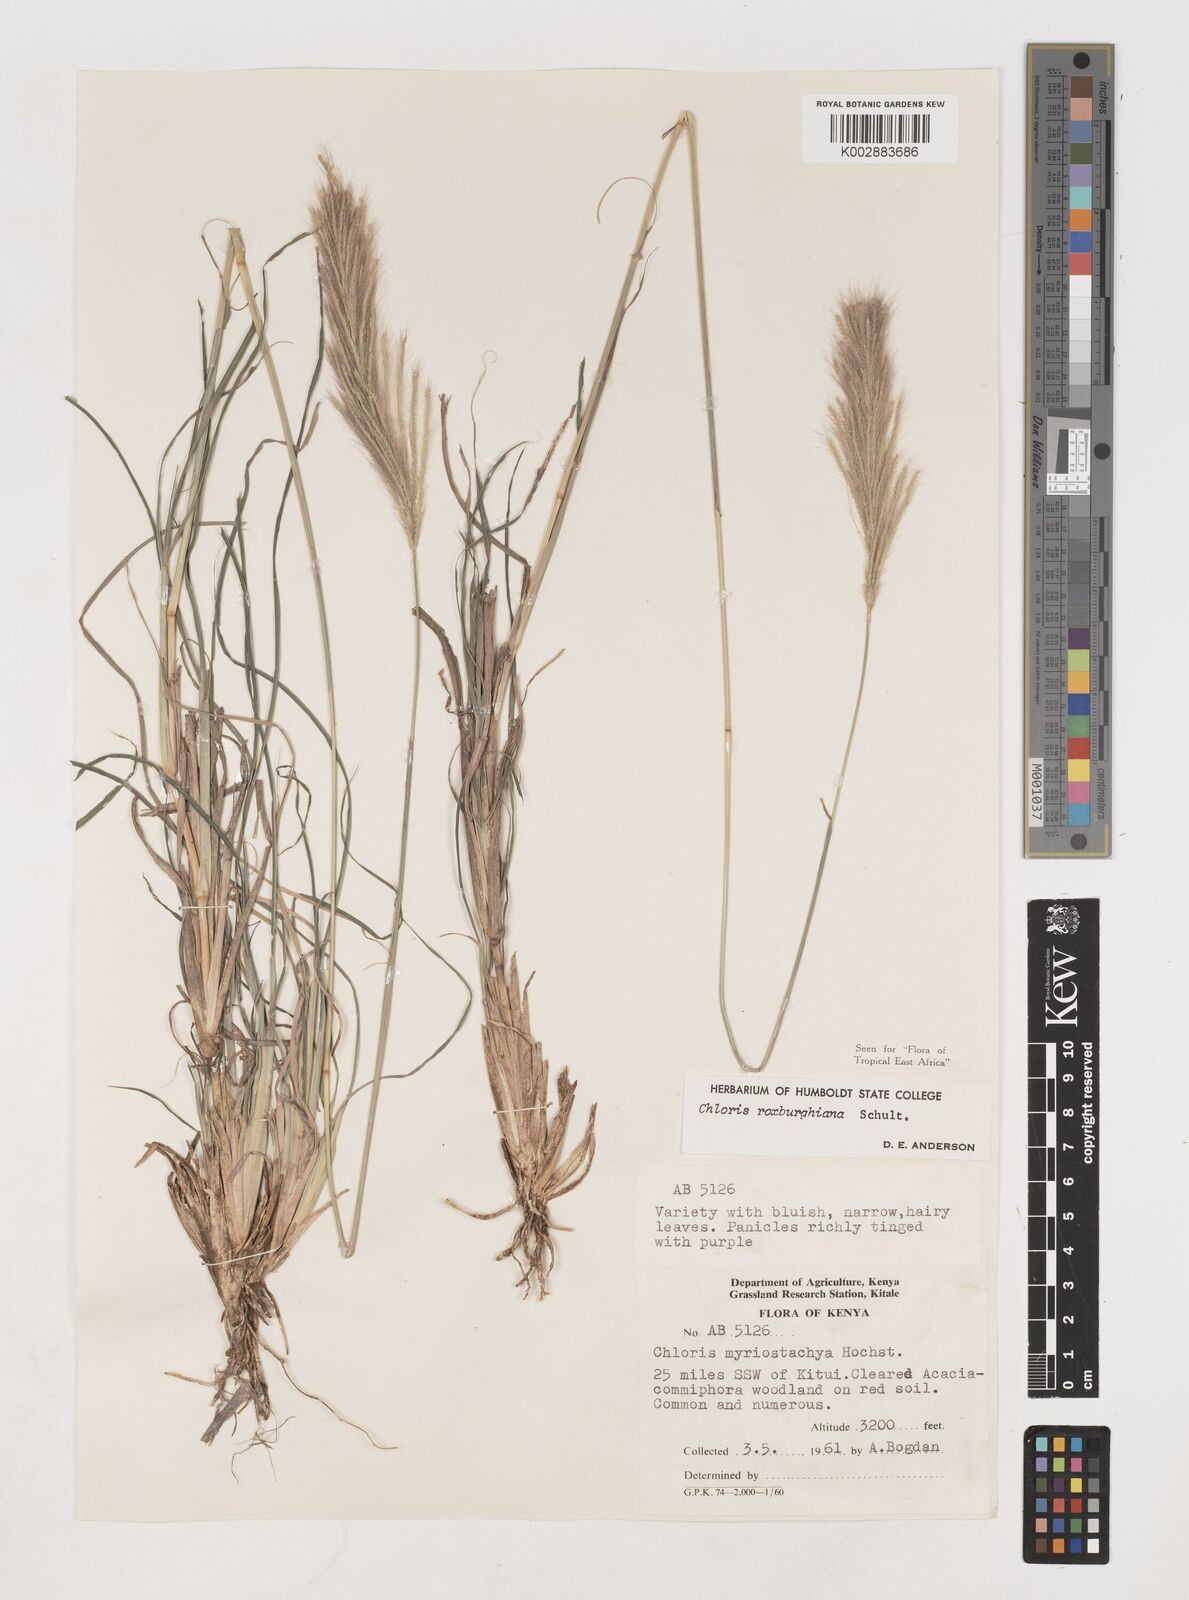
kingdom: Plantae
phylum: Tracheophyta
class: Liliopsida
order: Poales
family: Poaceae
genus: Tetrapogon
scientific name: Tetrapogon roxburghiana
